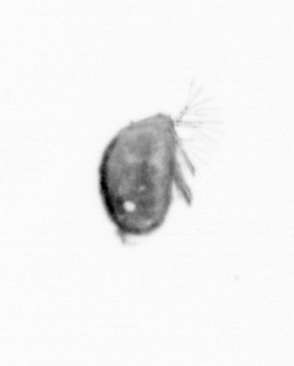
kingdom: Animalia
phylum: Arthropoda
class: Maxillopoda
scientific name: Maxillopoda
